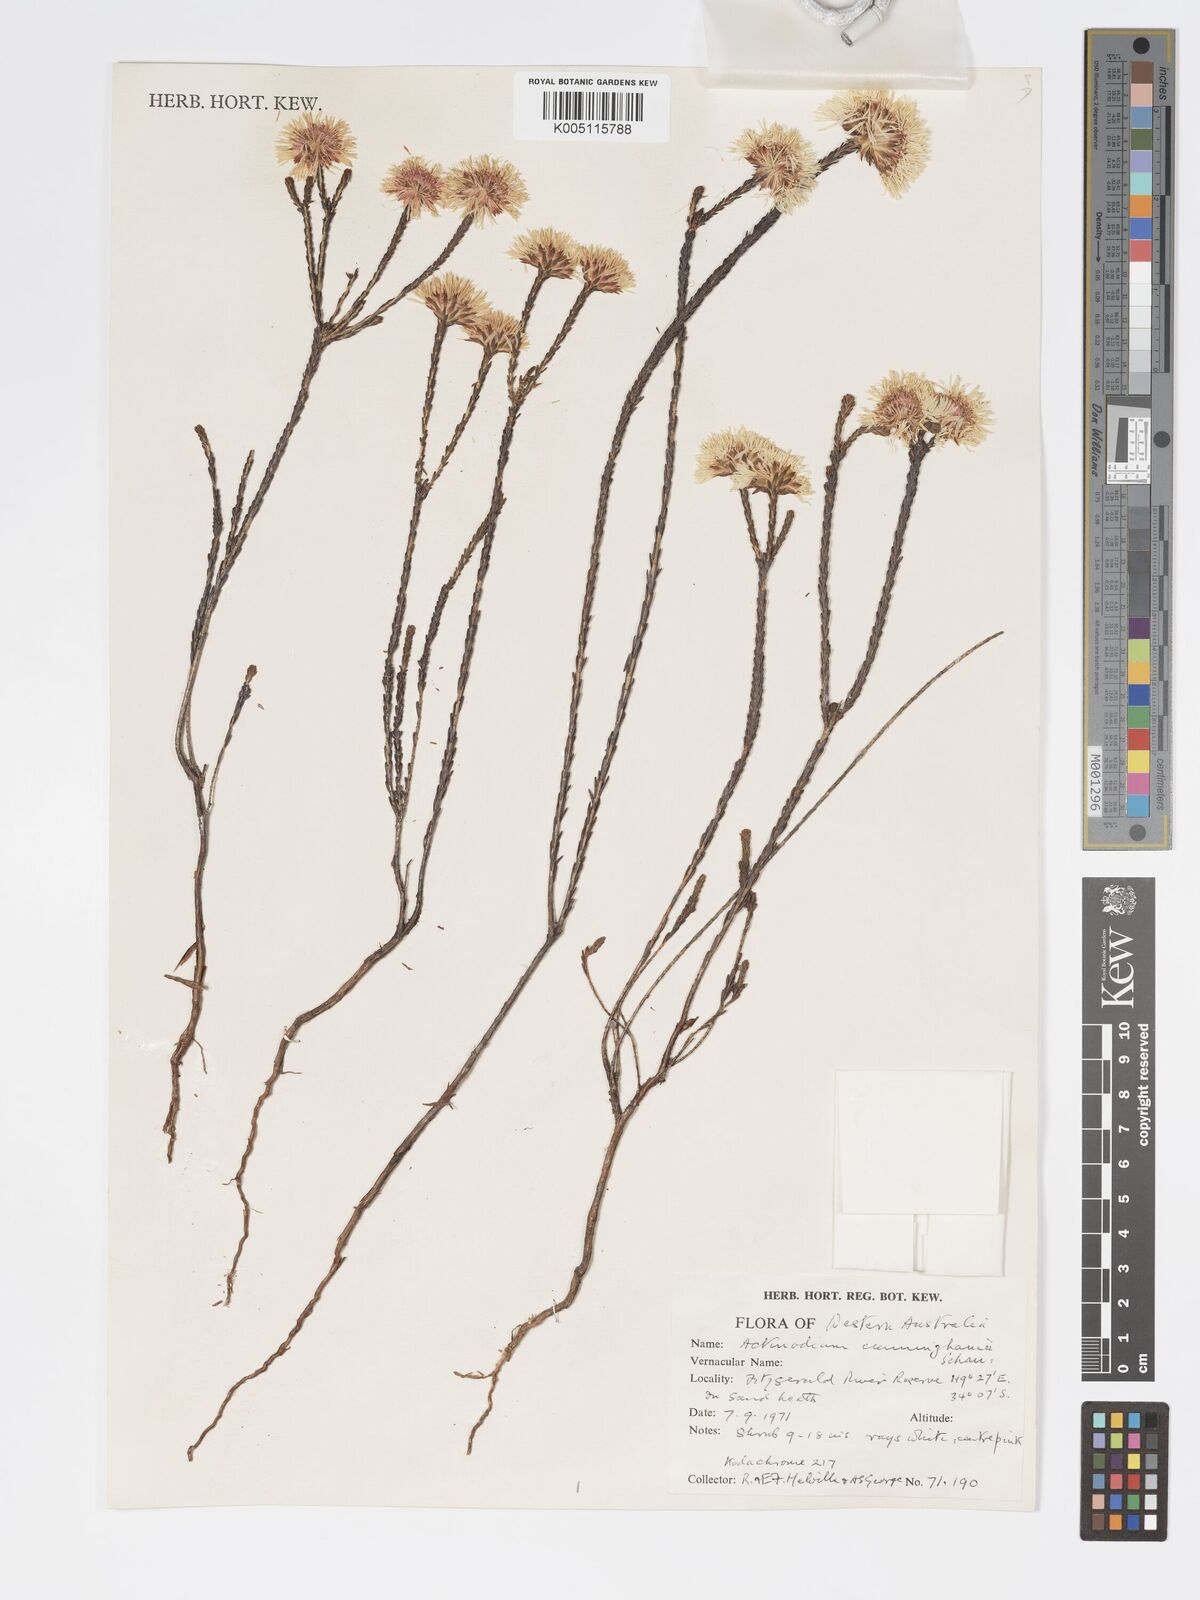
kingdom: Plantae
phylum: Tracheophyta
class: Magnoliopsida
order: Myrtales
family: Myrtaceae
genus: Actinodium
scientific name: Actinodium cunninghamii
